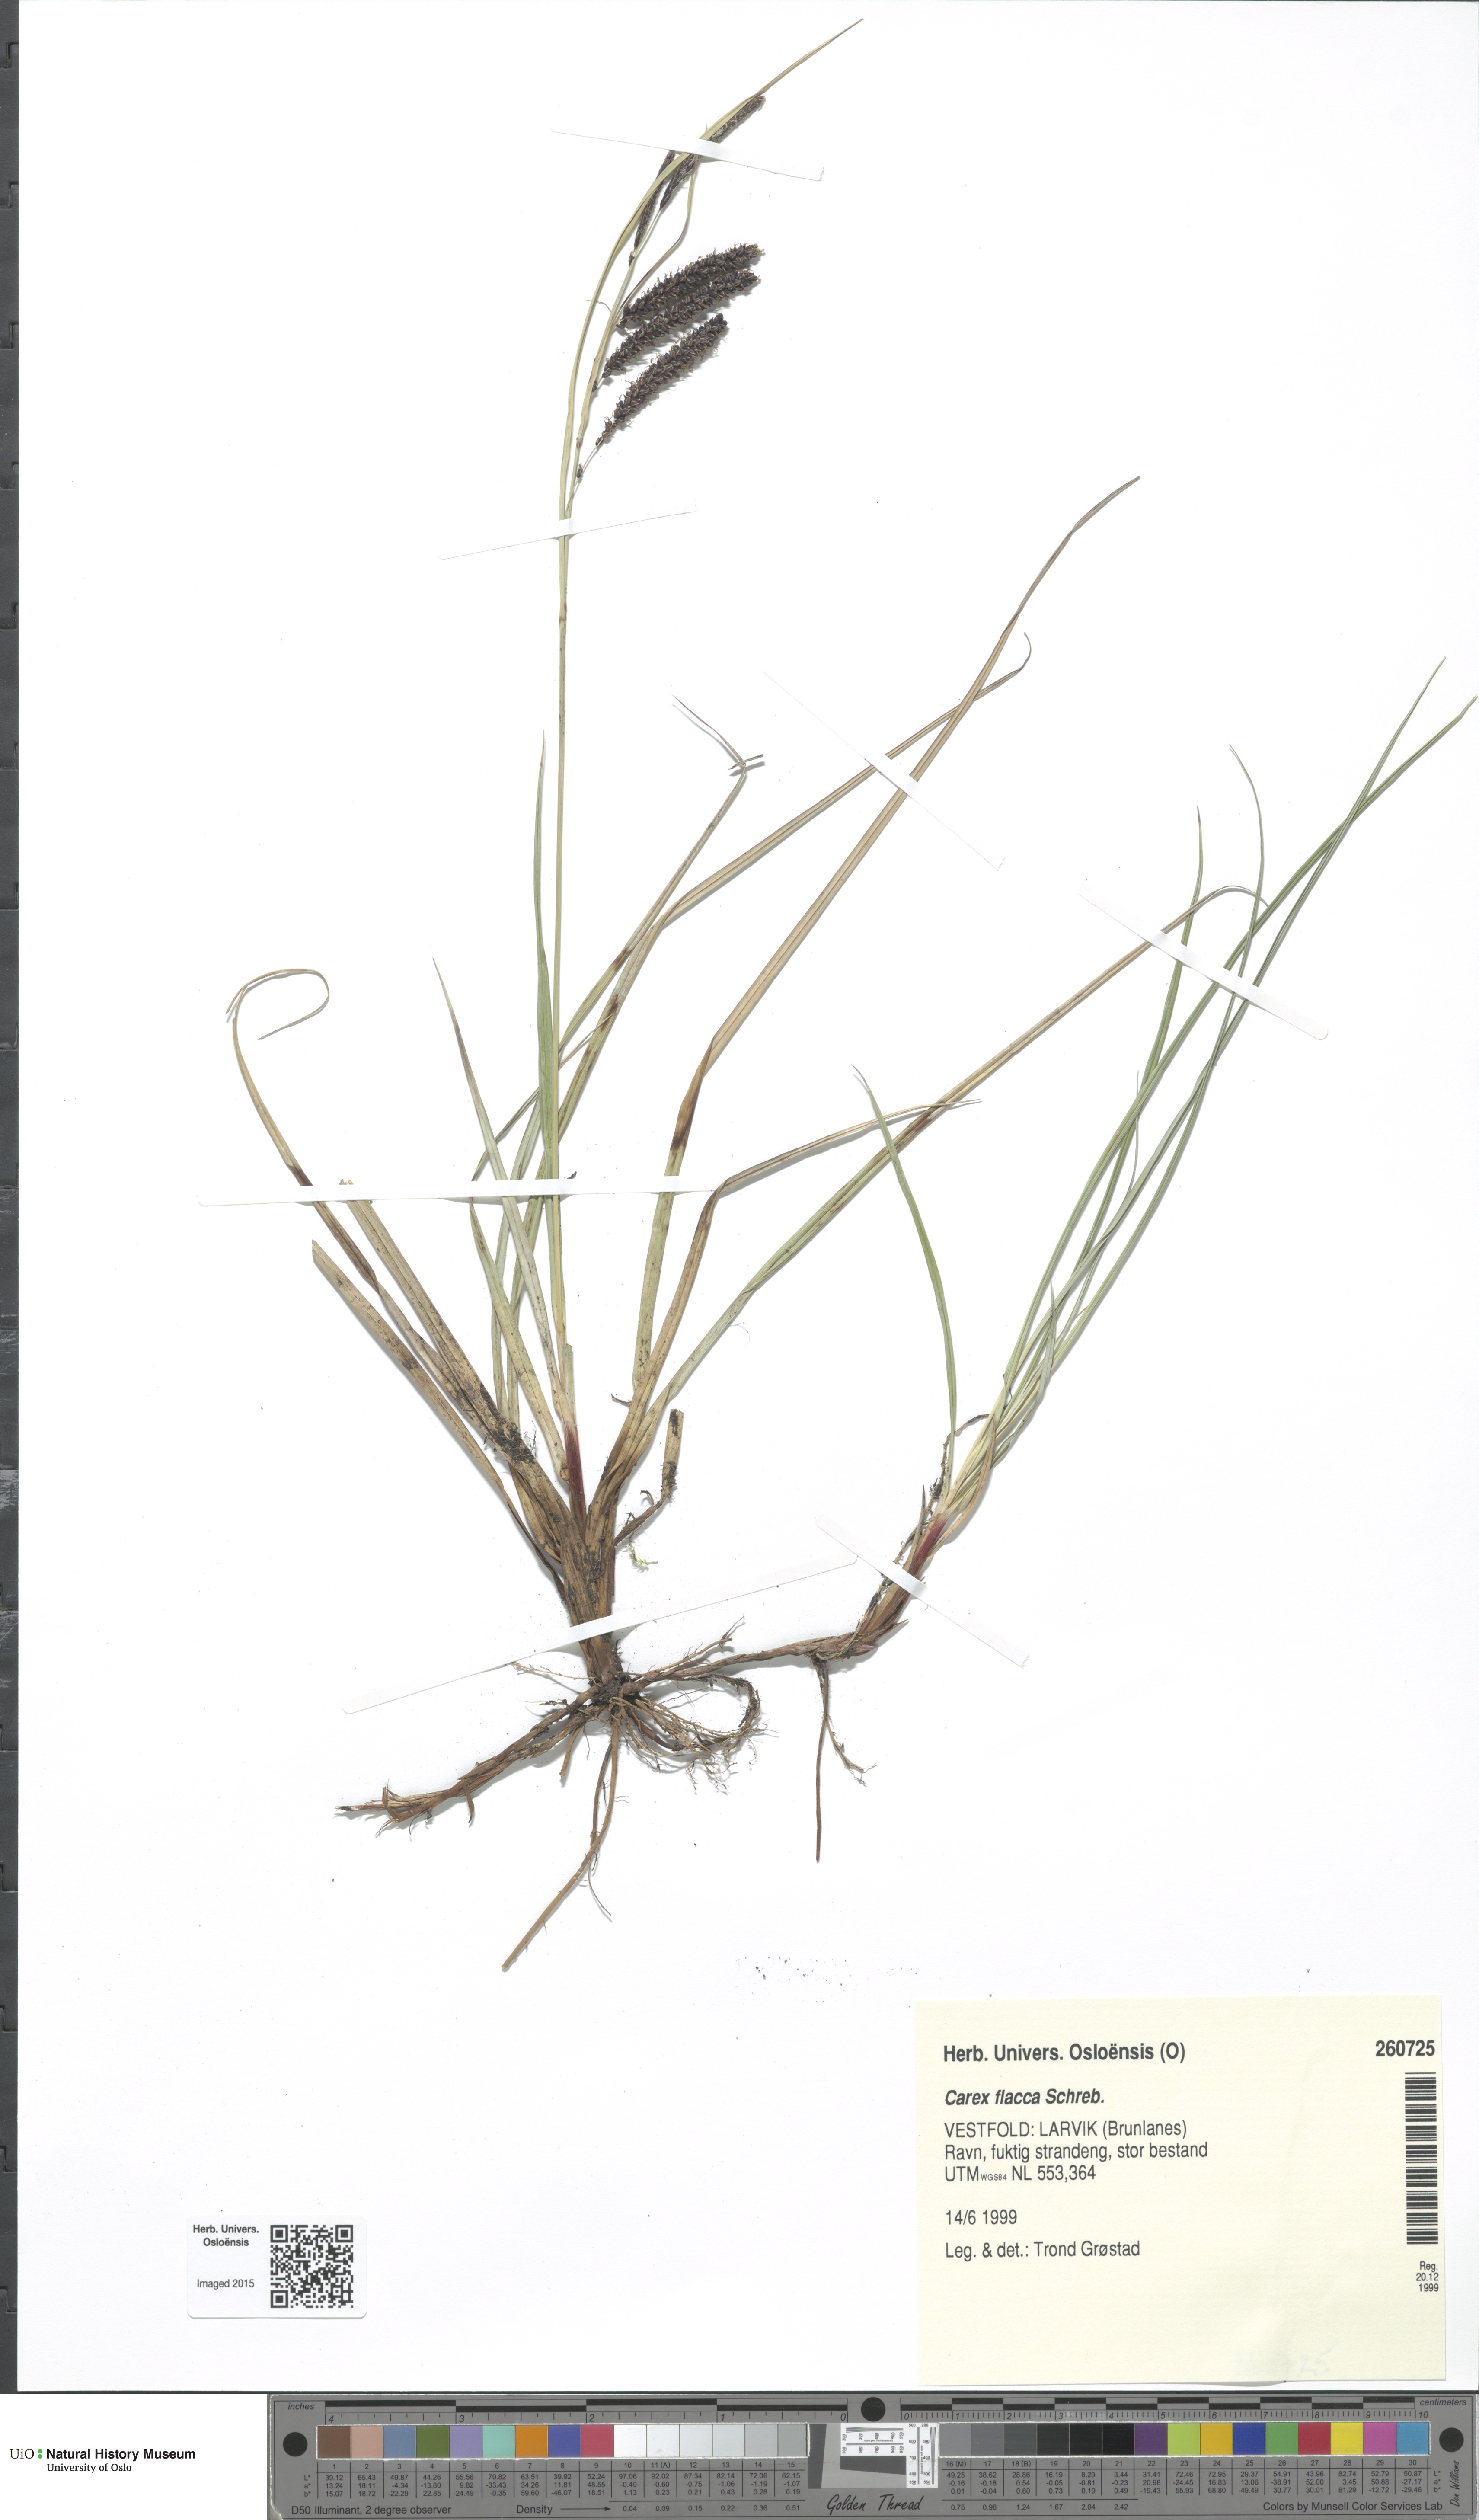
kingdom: Plantae
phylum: Tracheophyta
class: Liliopsida
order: Poales
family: Cyperaceae
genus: Carex
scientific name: Carex flacca
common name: Glaucous sedge
